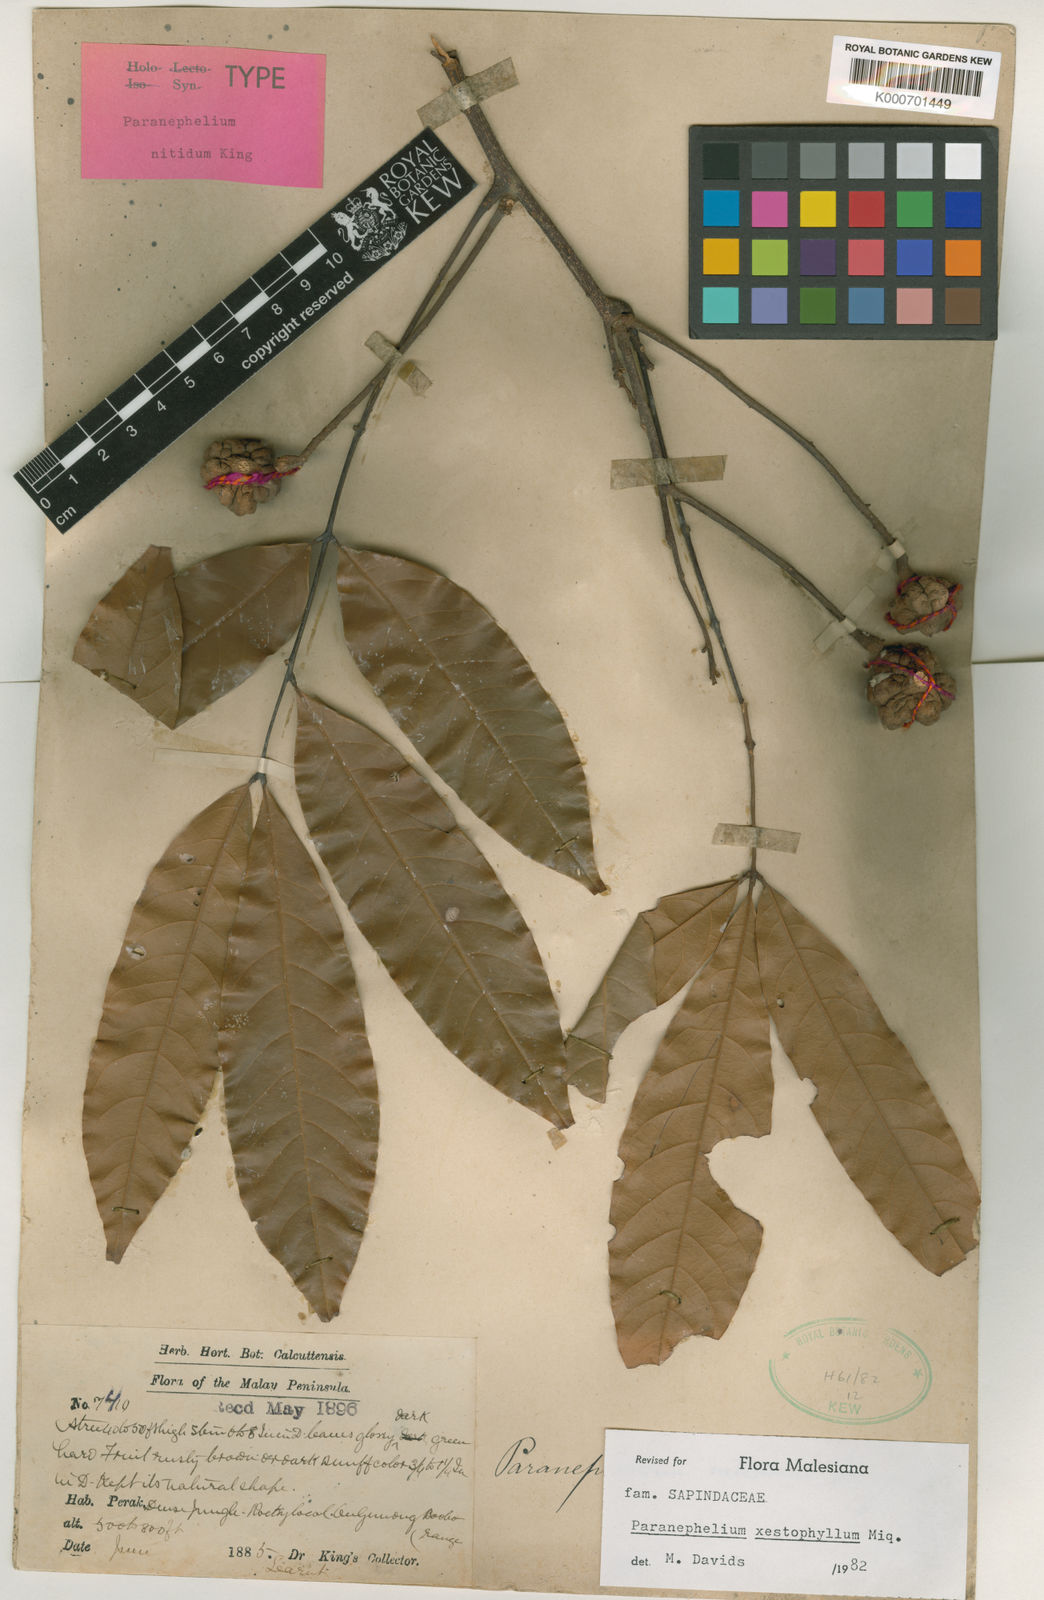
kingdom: Plantae
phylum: Tracheophyta
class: Magnoliopsida
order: Sapindales
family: Sapindaceae
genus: Paranephelium
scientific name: Paranephelium xestophyllum
